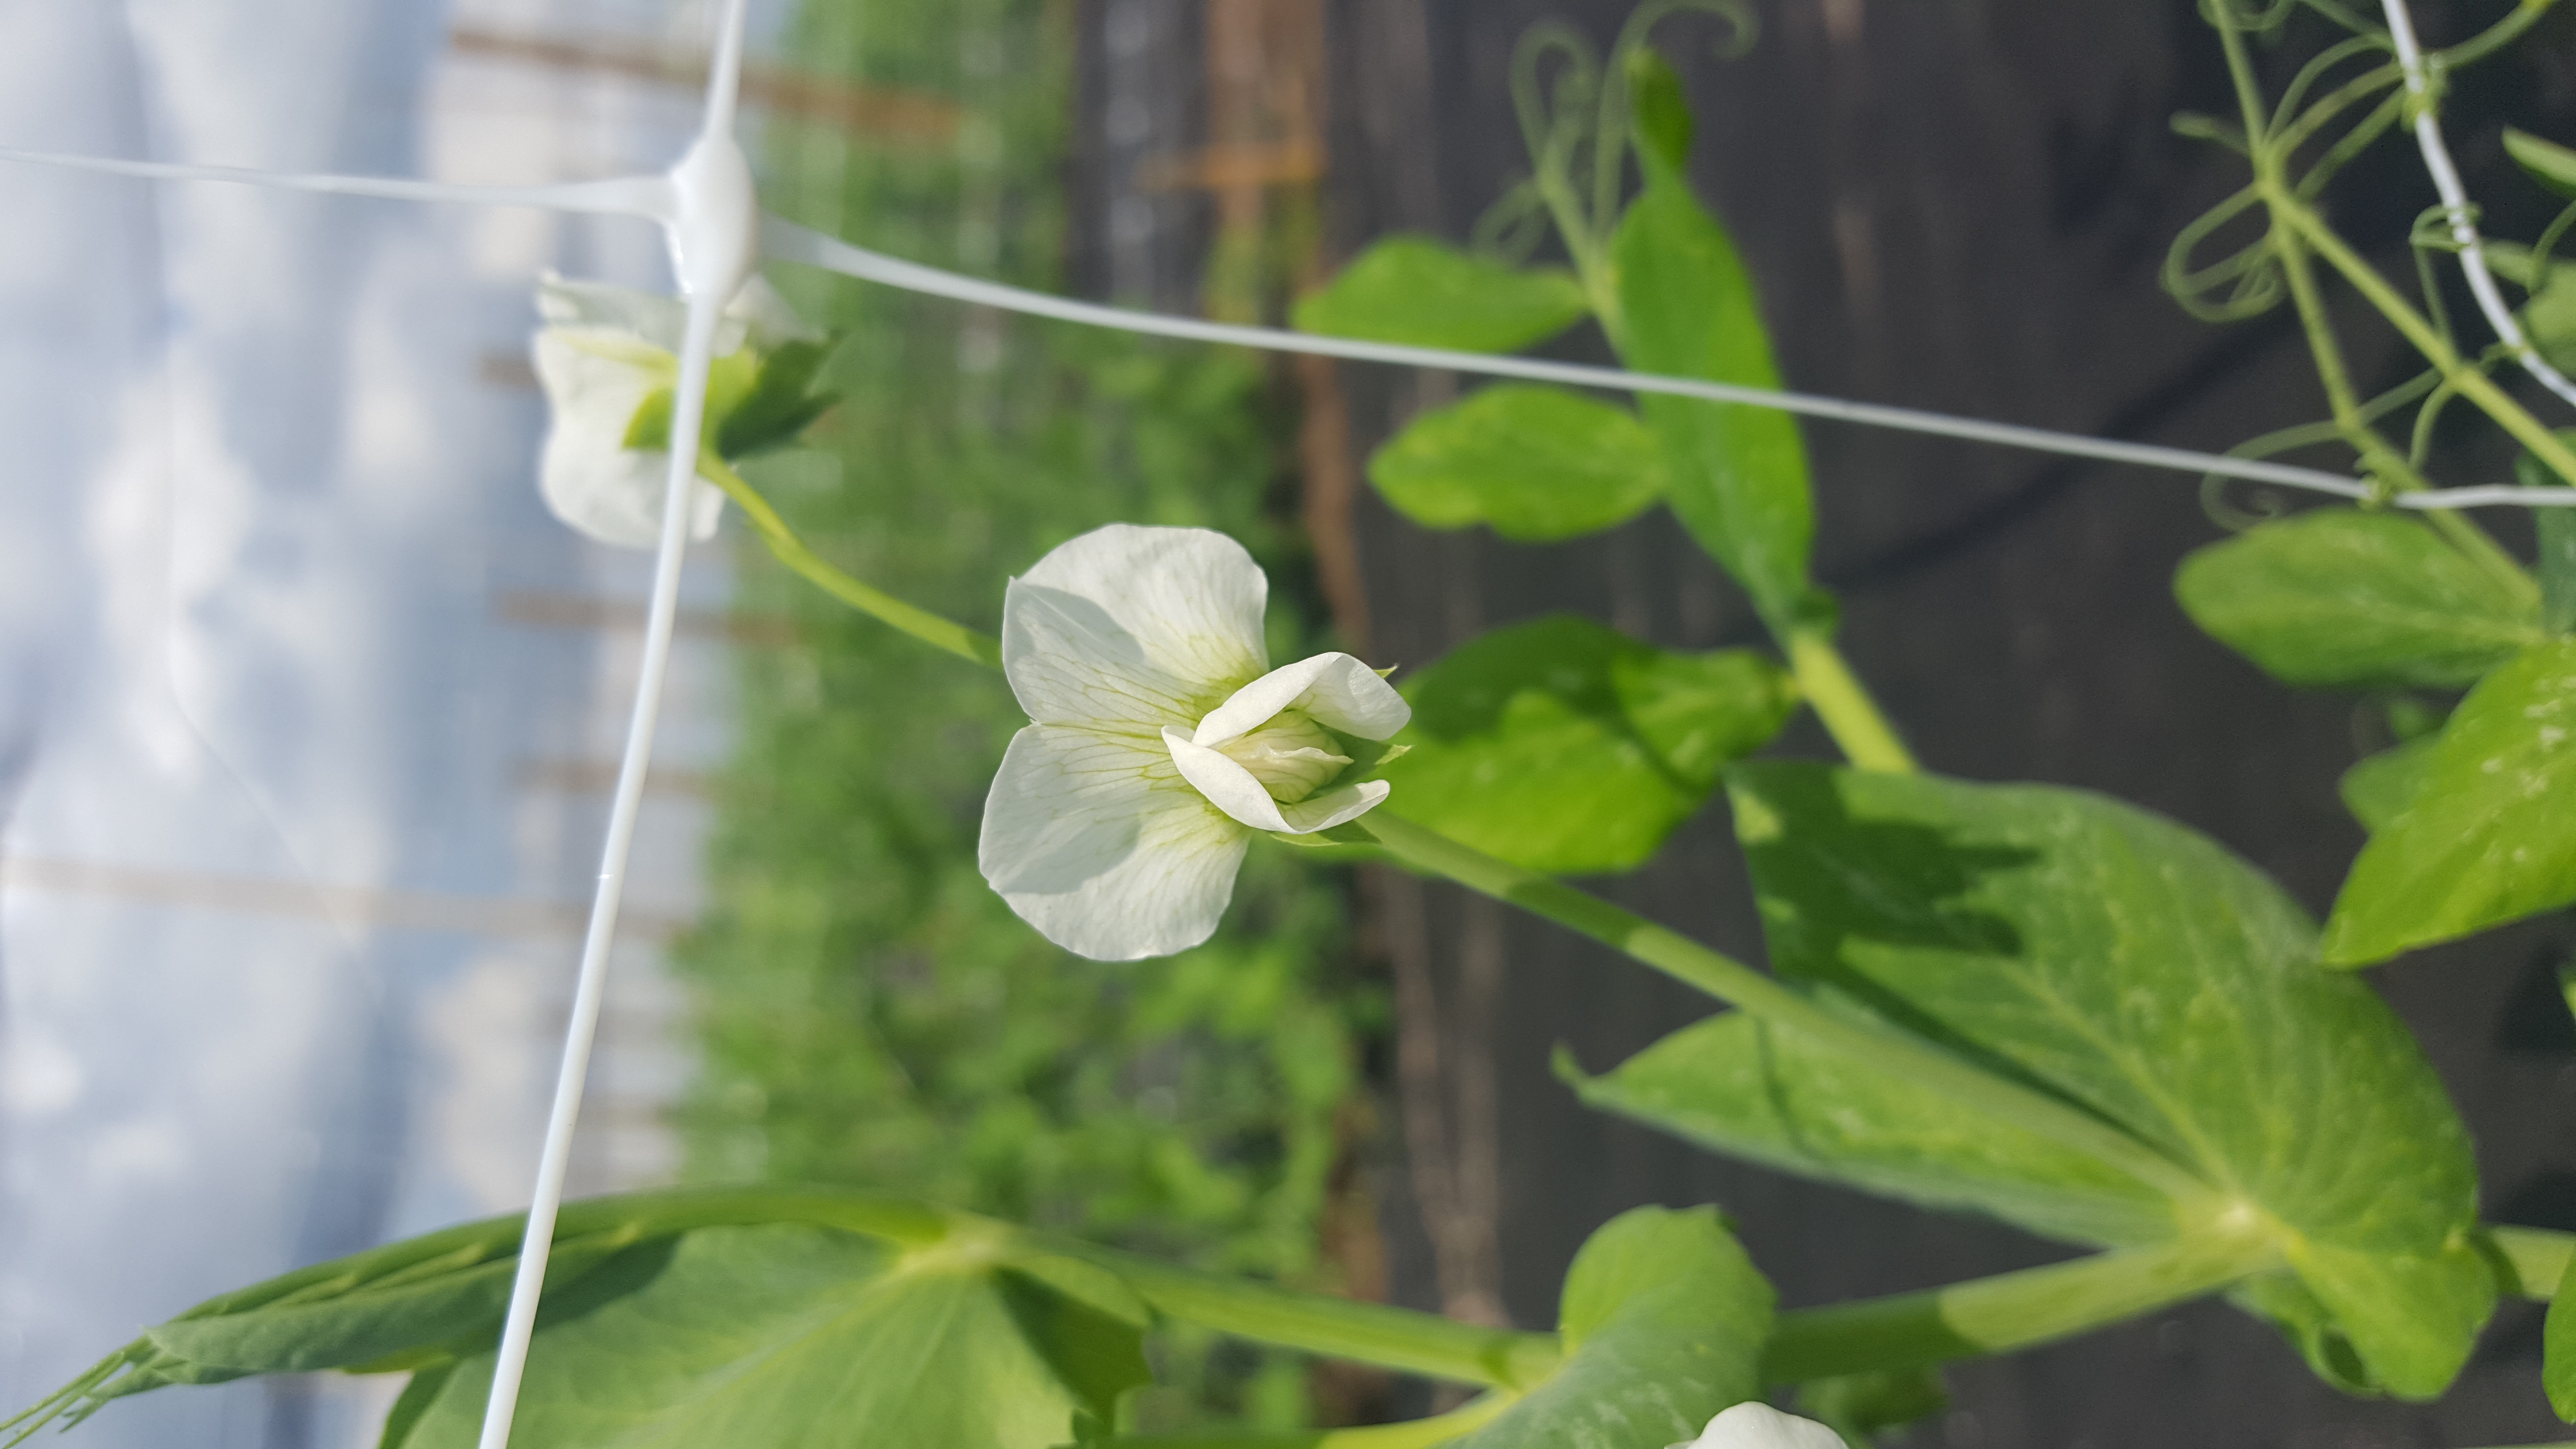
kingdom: Plantae
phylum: Tracheophyta
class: Magnoliopsida
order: Fabales
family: Fabaceae
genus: Lathyrus
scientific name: Lathyrus oleraceus
